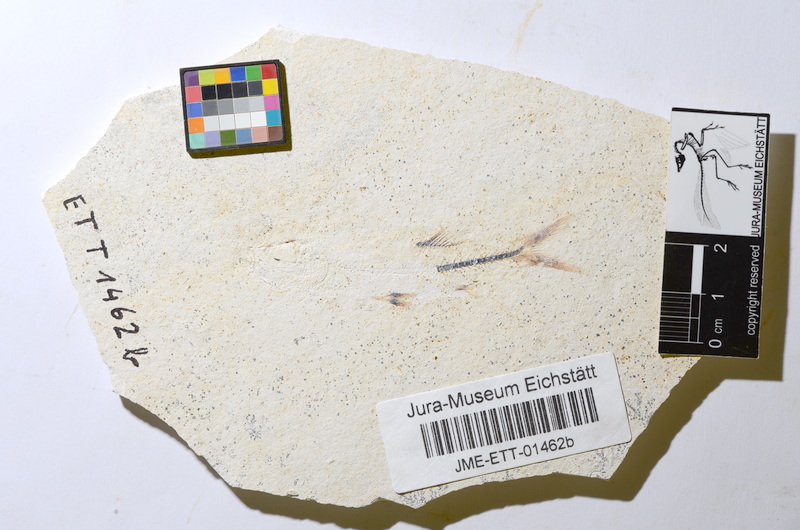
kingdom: Animalia
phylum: Chordata
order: Salmoniformes
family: Orthogonikleithridae
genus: Orthogonikleithrus
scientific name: Orthogonikleithrus hoelli
